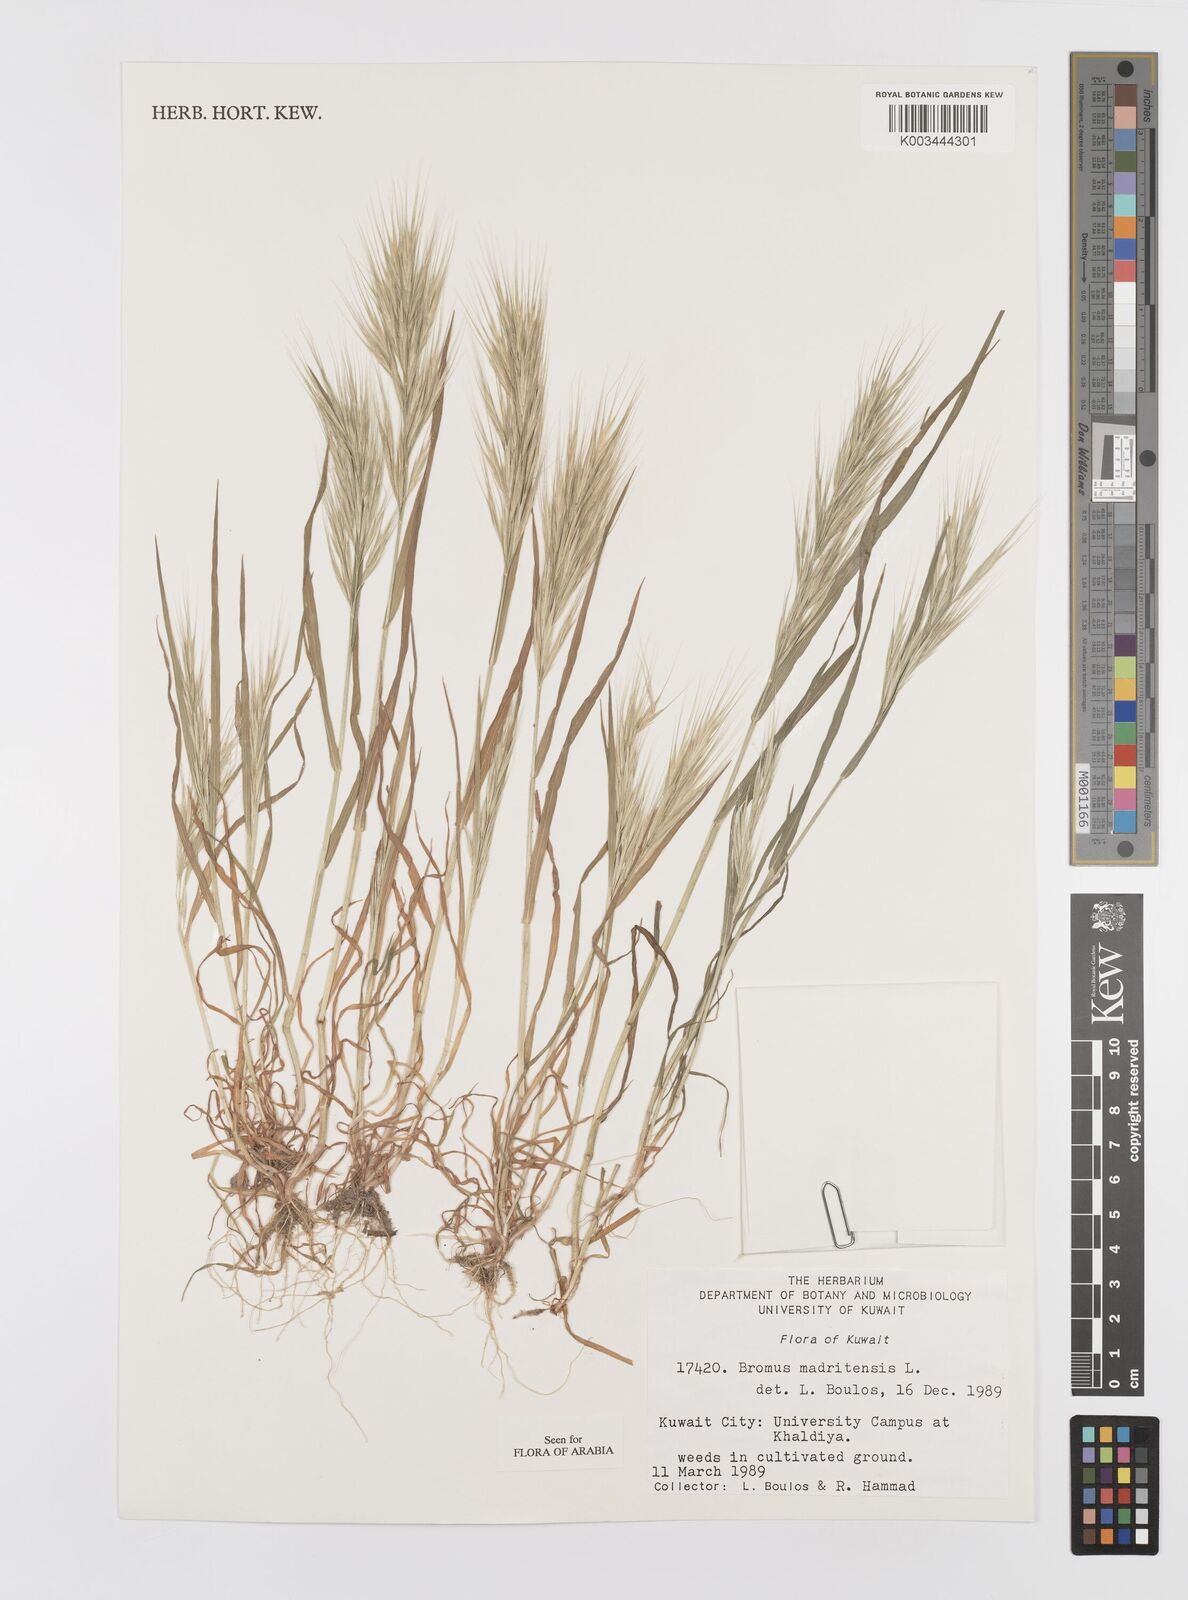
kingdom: Plantae
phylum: Tracheophyta
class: Liliopsida
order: Poales
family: Poaceae
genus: Bromus
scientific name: Bromus madritensis
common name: Compact brome
